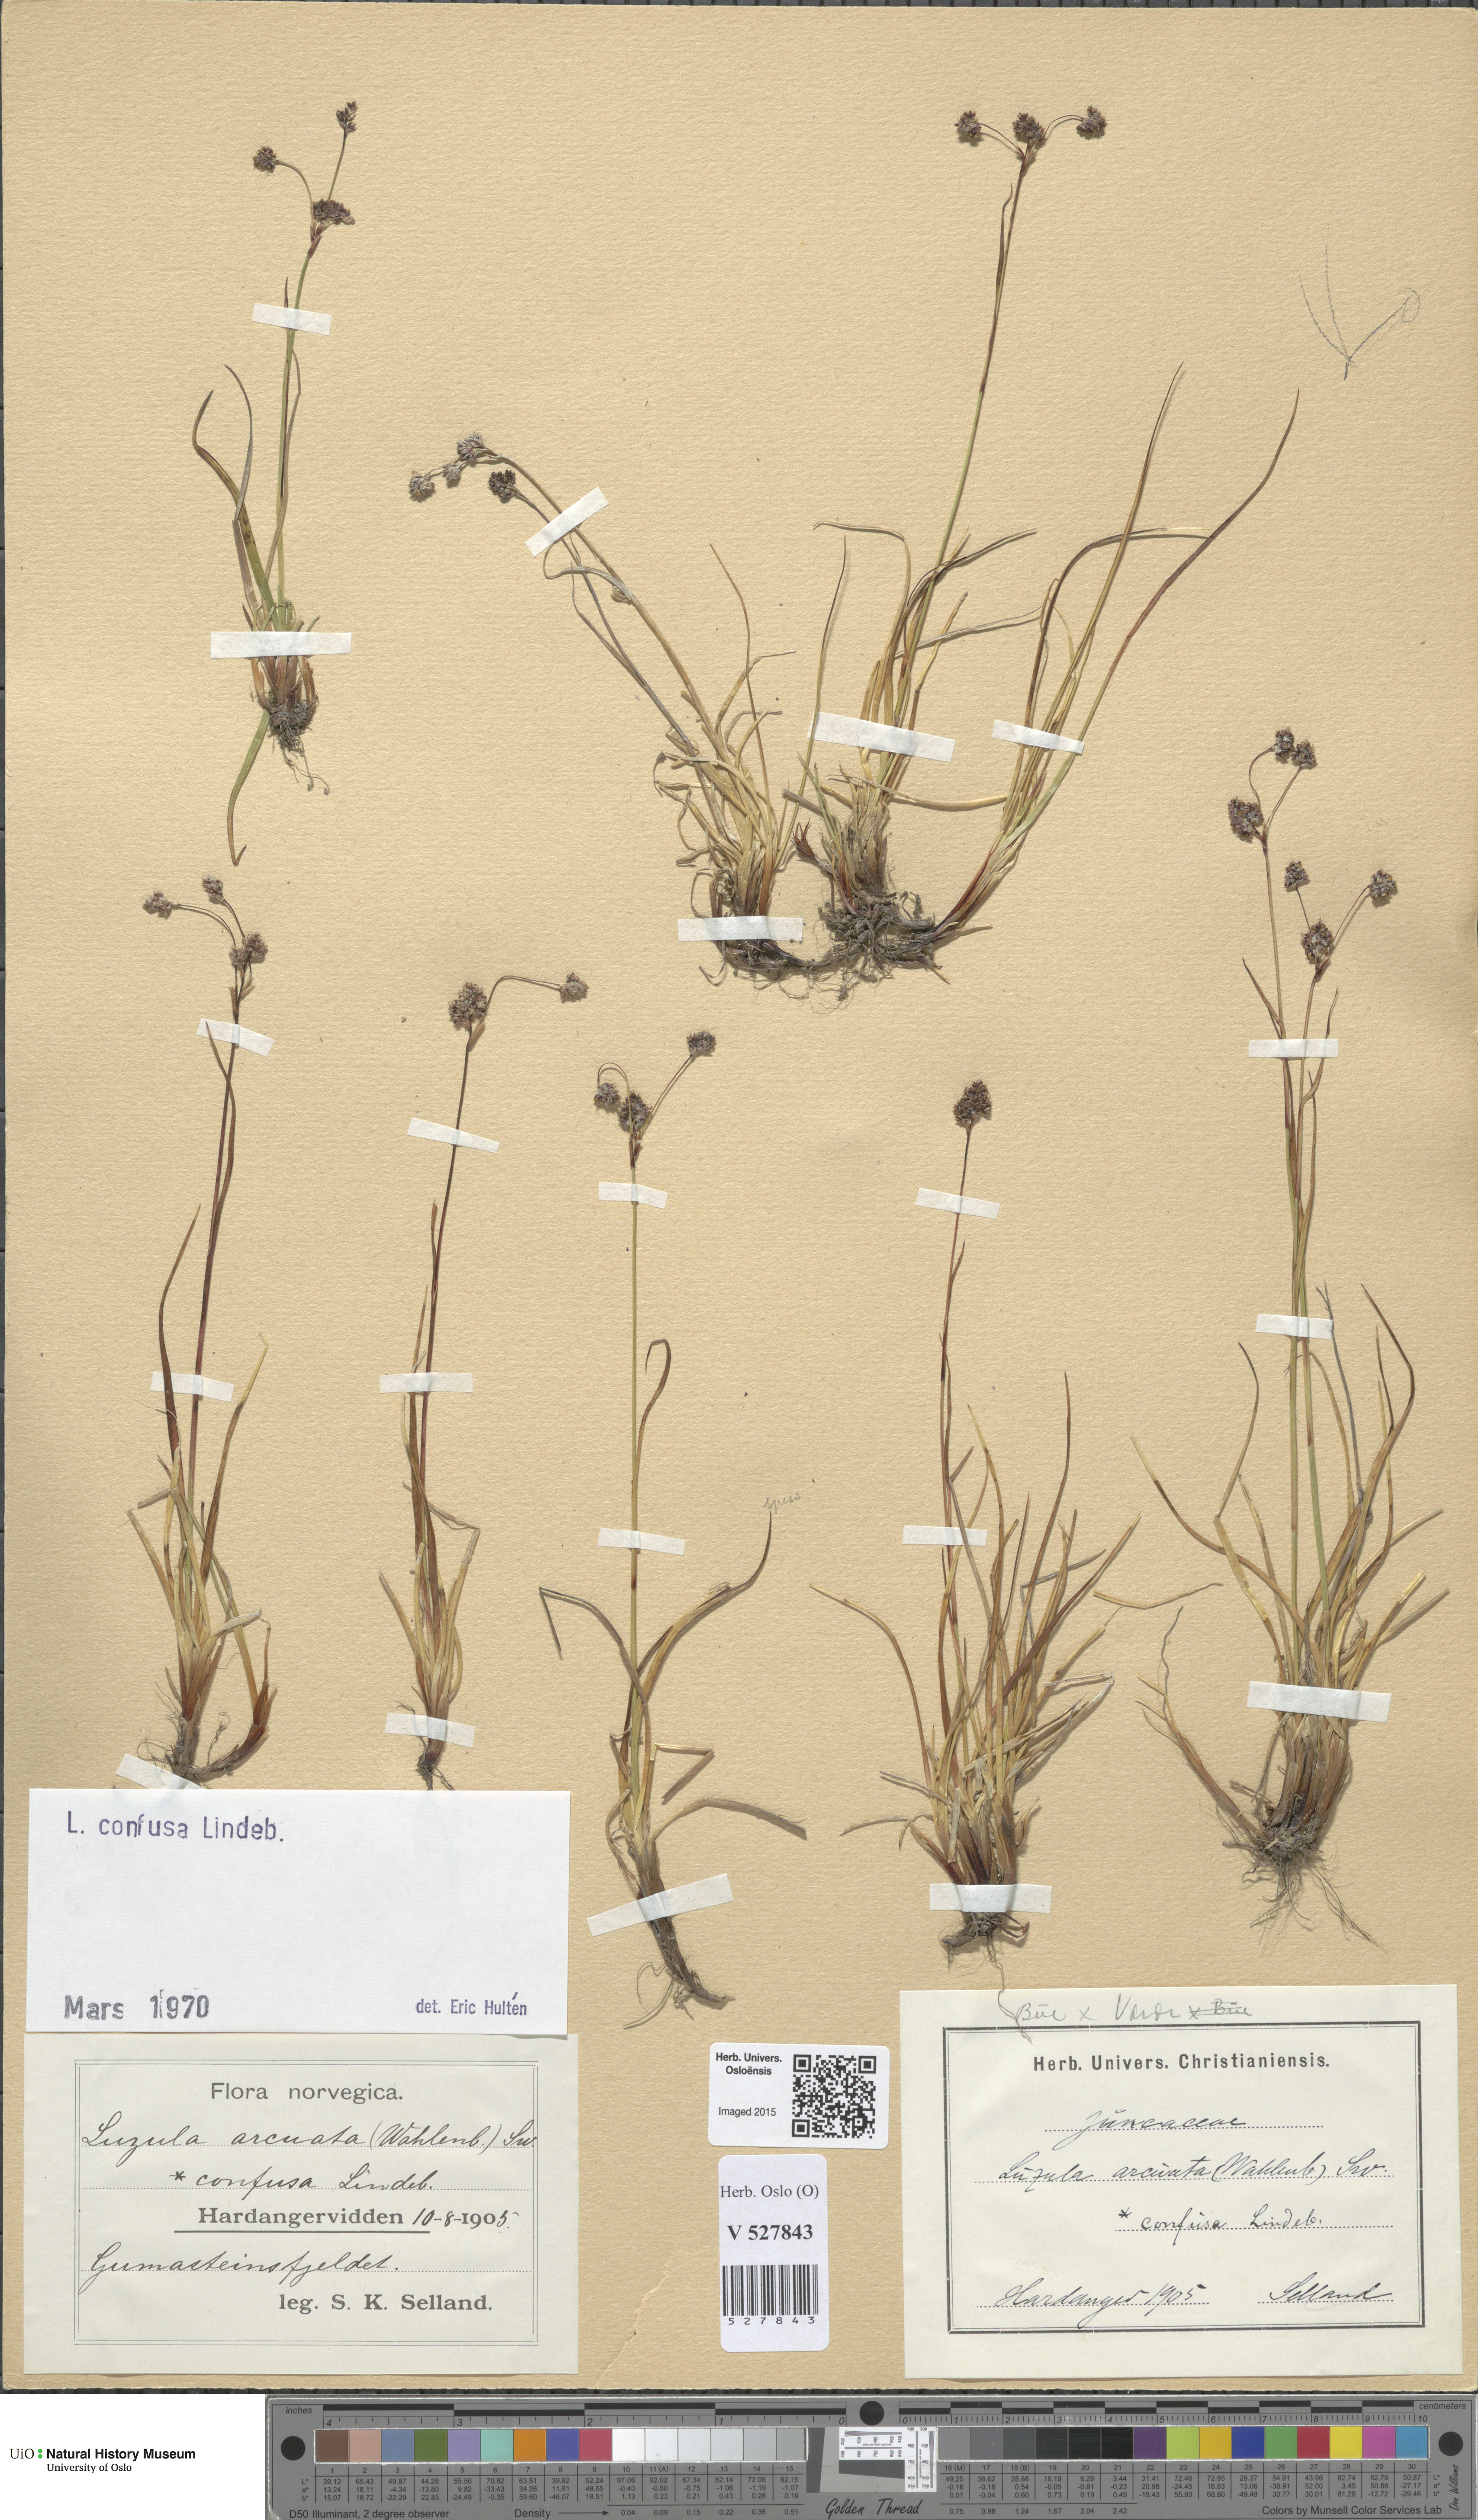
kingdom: Plantae
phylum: Tracheophyta
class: Liliopsida
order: Poales
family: Juncaceae
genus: Luzula
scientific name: Luzula confusa
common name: Northern wood rush
